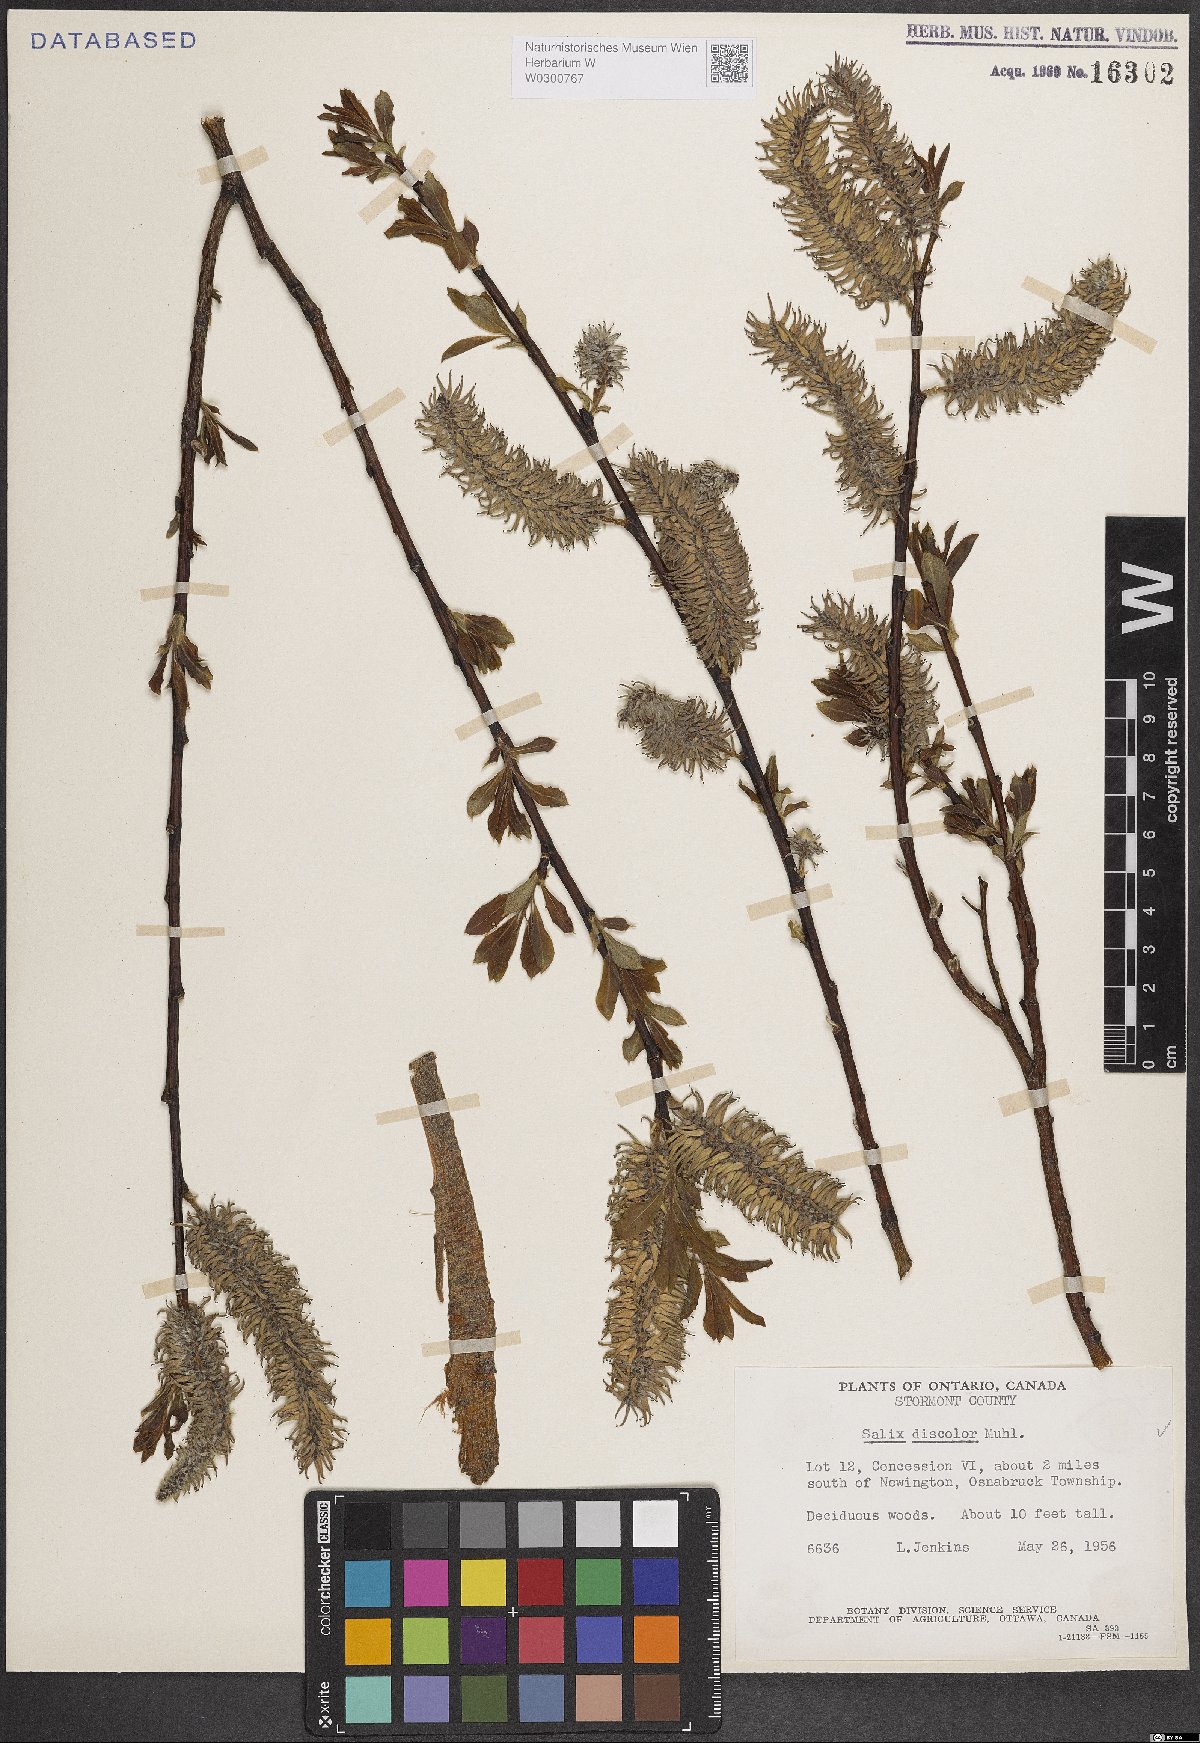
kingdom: Plantae
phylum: Tracheophyta
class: Magnoliopsida
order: Malpighiales
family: Salicaceae
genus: Salix
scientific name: Salix discolor
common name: Glaucous willow
